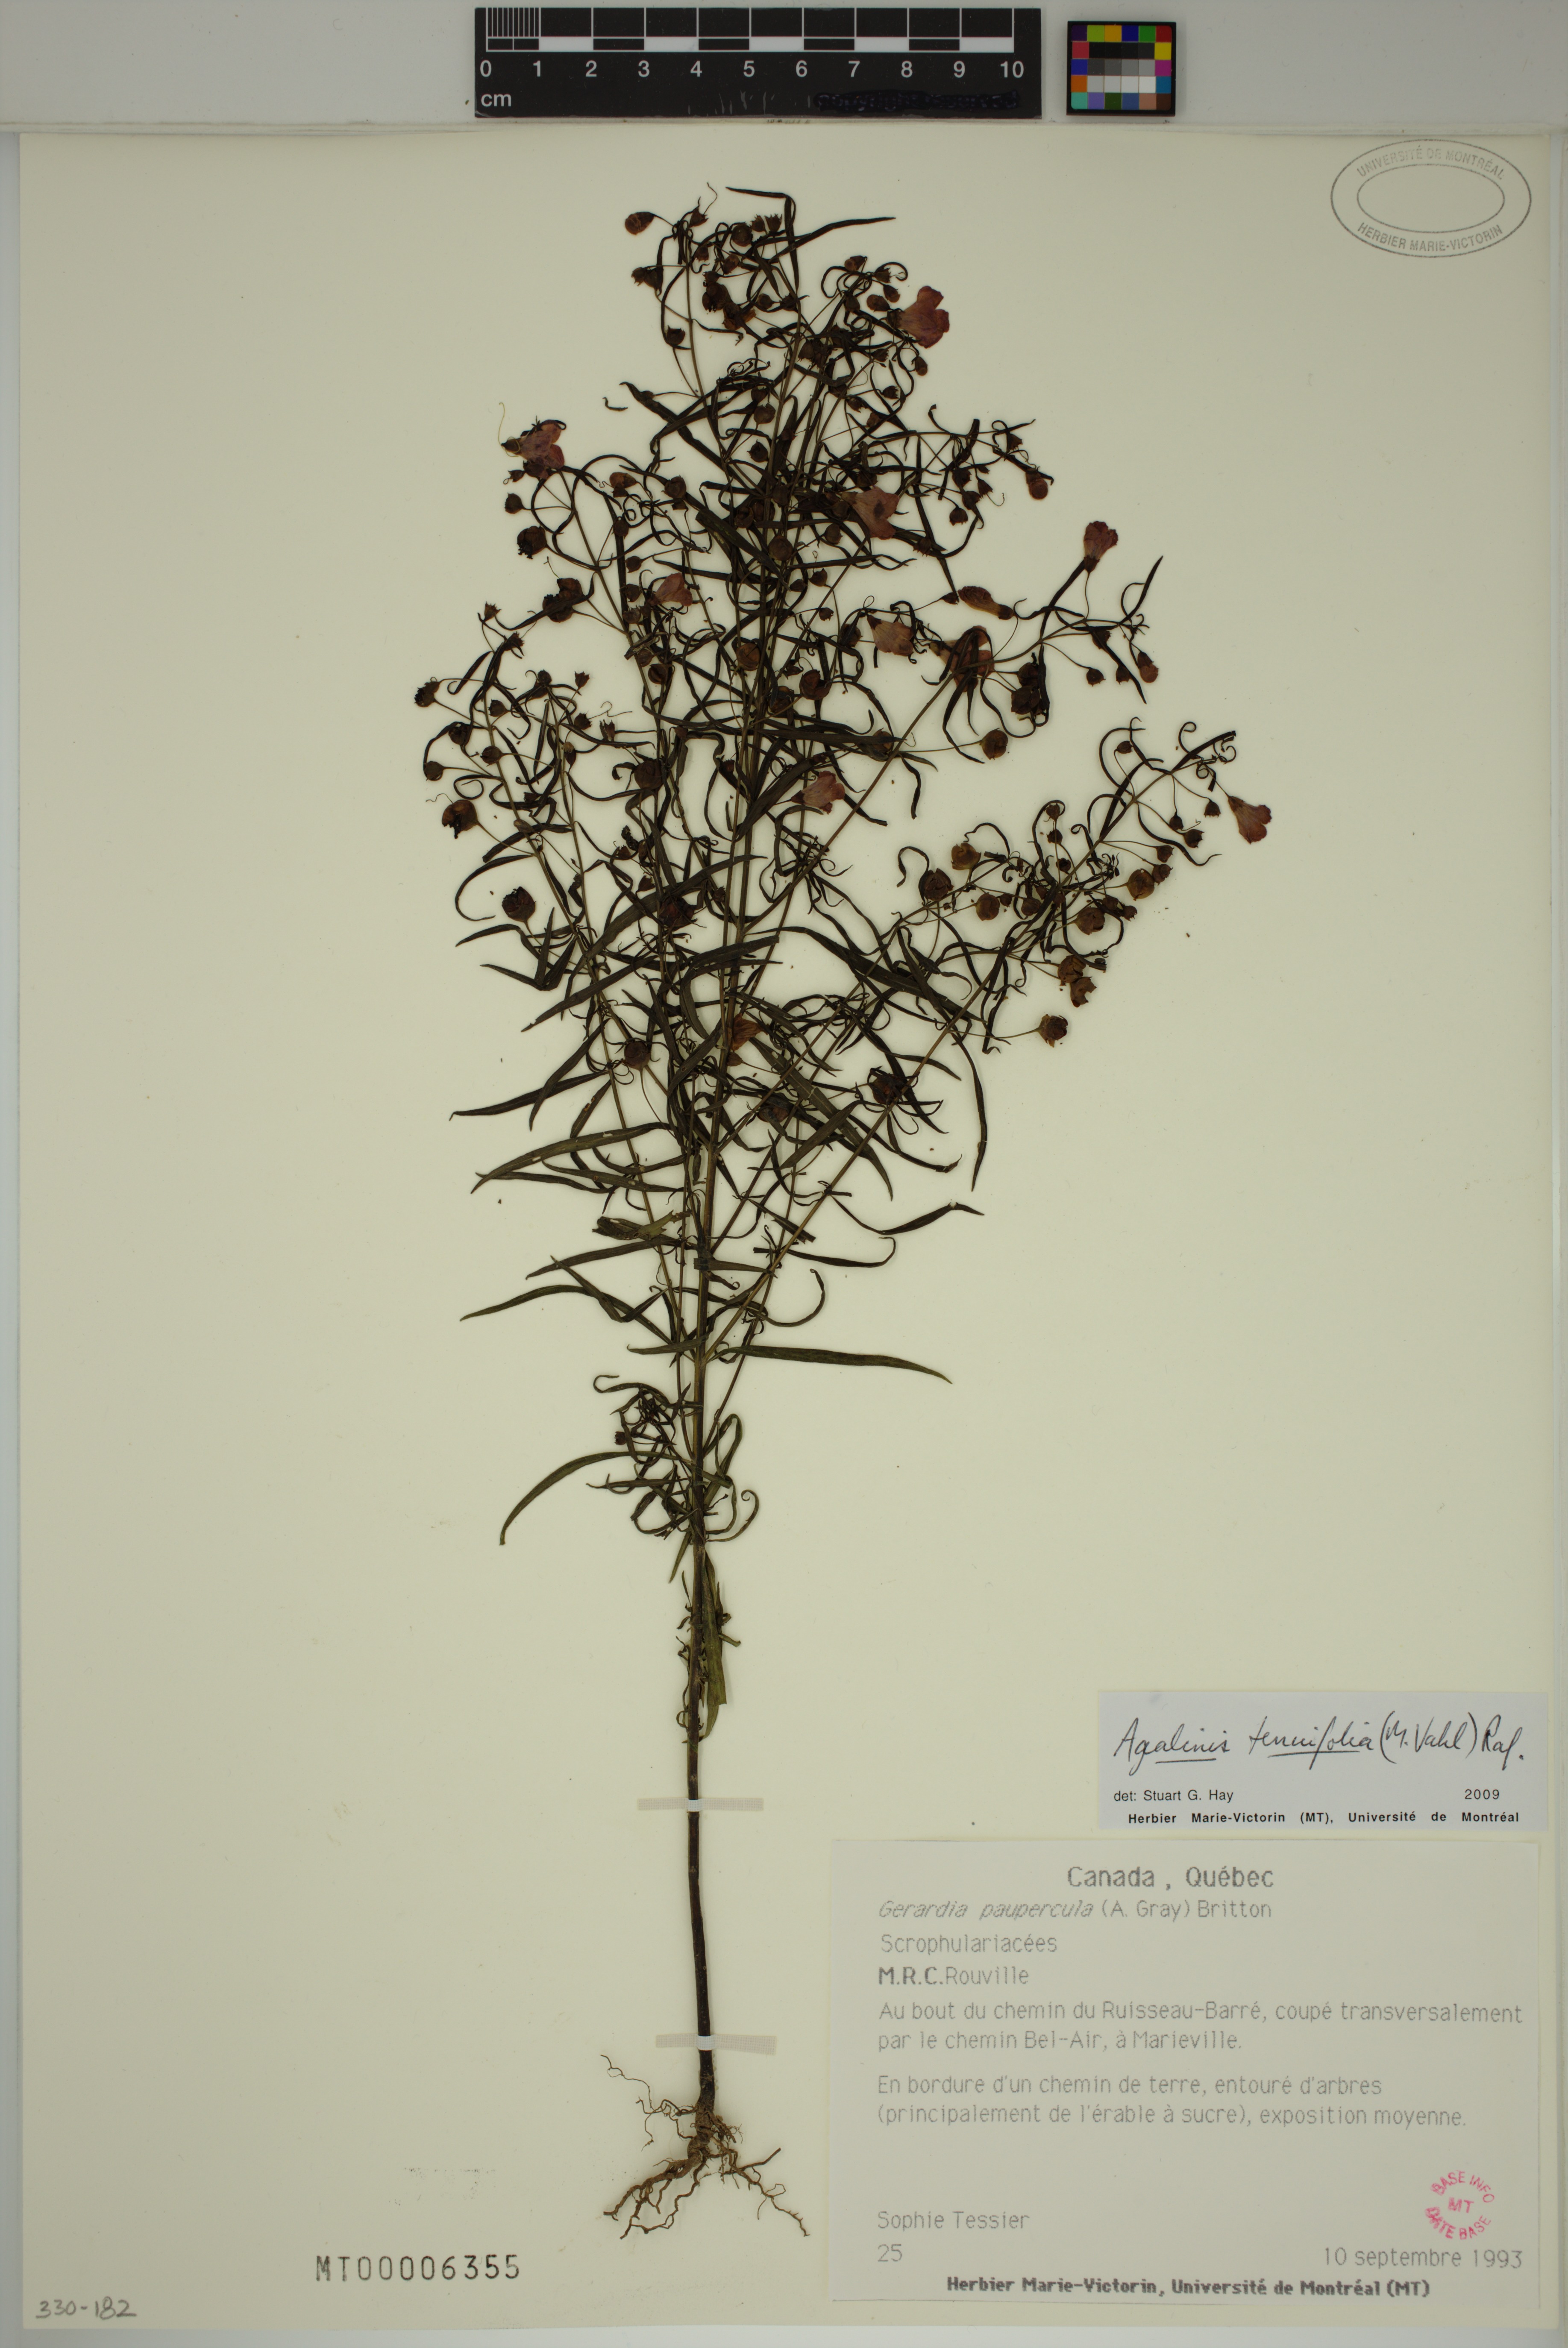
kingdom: Plantae
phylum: Tracheophyta
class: Magnoliopsida
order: Lamiales
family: Orobanchaceae
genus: Agalinis
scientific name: Agalinis tenuifolia
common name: Slender agalinis
